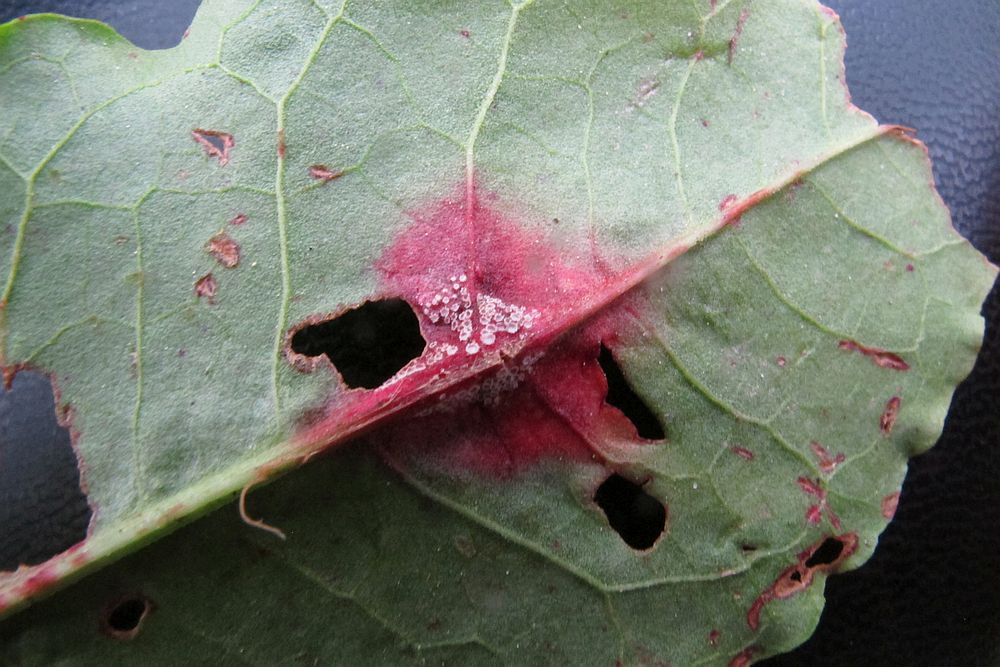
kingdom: Fungi
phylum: Basidiomycota
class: Pucciniomycetes
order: Pucciniales
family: Pucciniaceae
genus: Puccinia
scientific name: Puccinia phragmitis
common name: tagrør-tvecellerust
